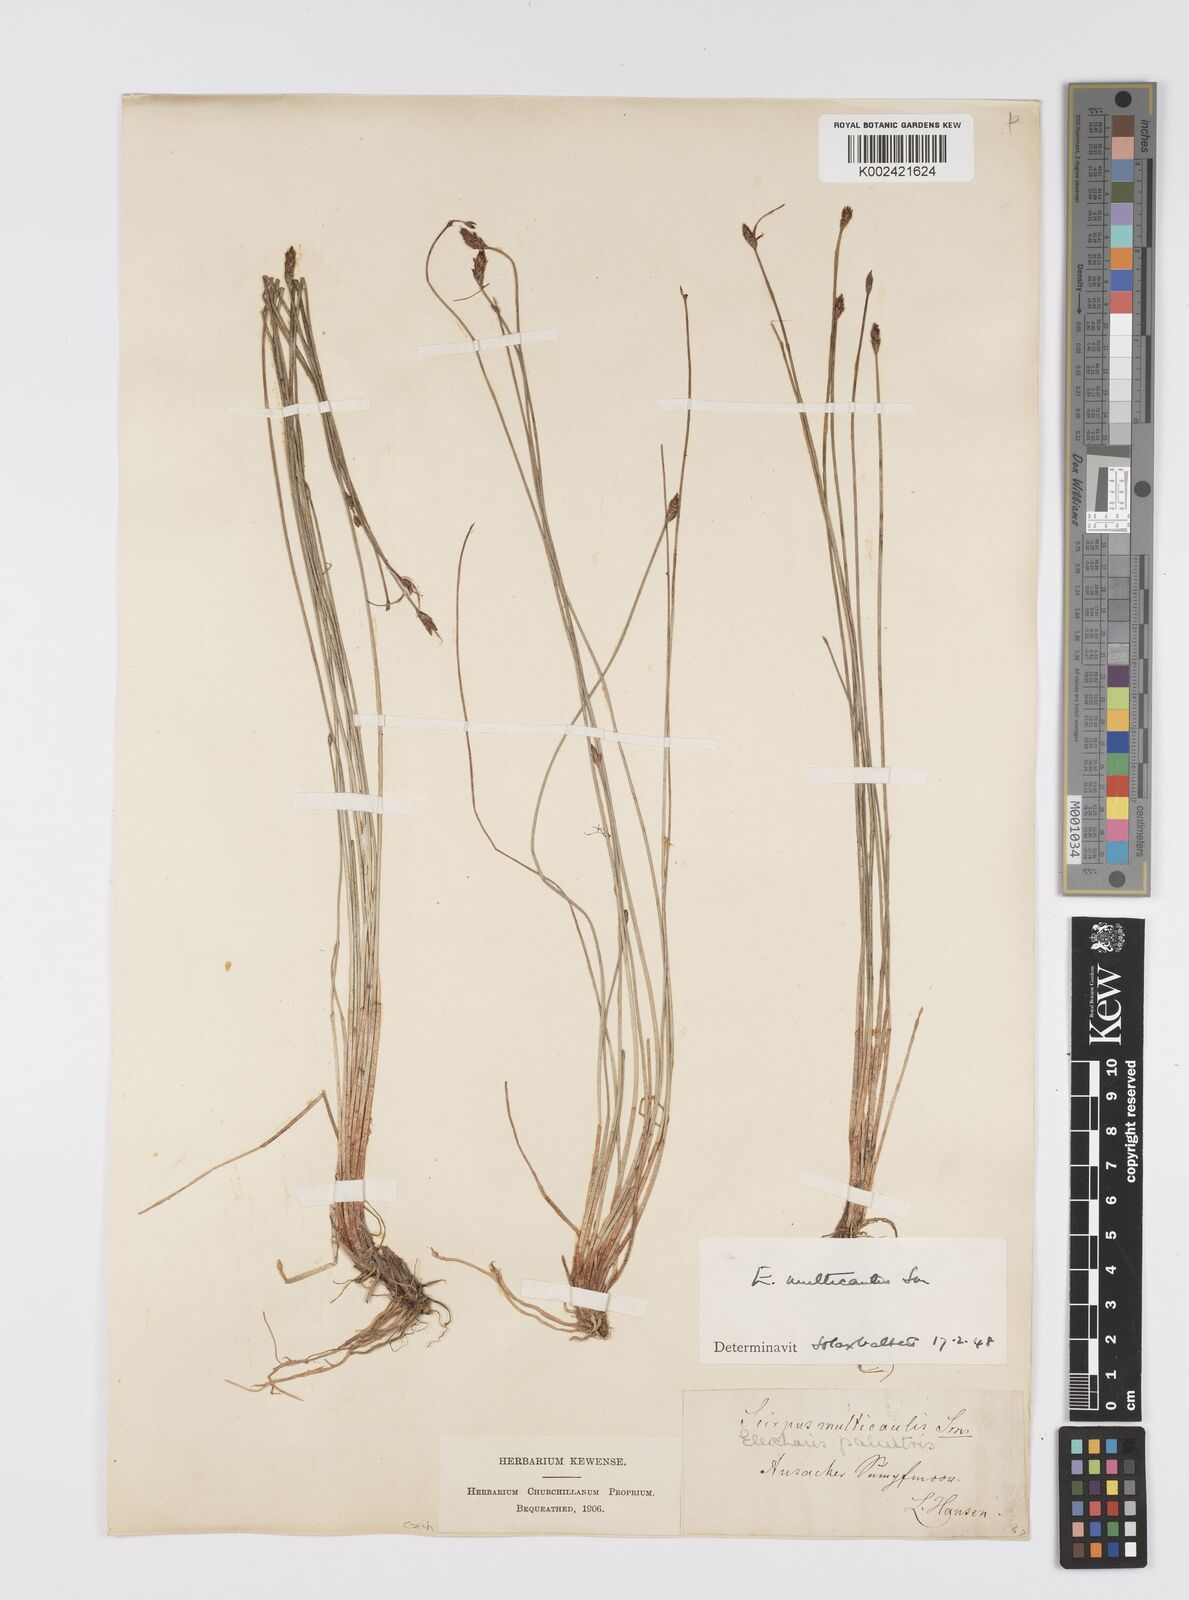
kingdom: Plantae
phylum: Tracheophyta
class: Liliopsida
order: Poales
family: Cyperaceae
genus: Eleocharis
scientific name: Eleocharis multicaulis
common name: Many-stalked spike-rush
